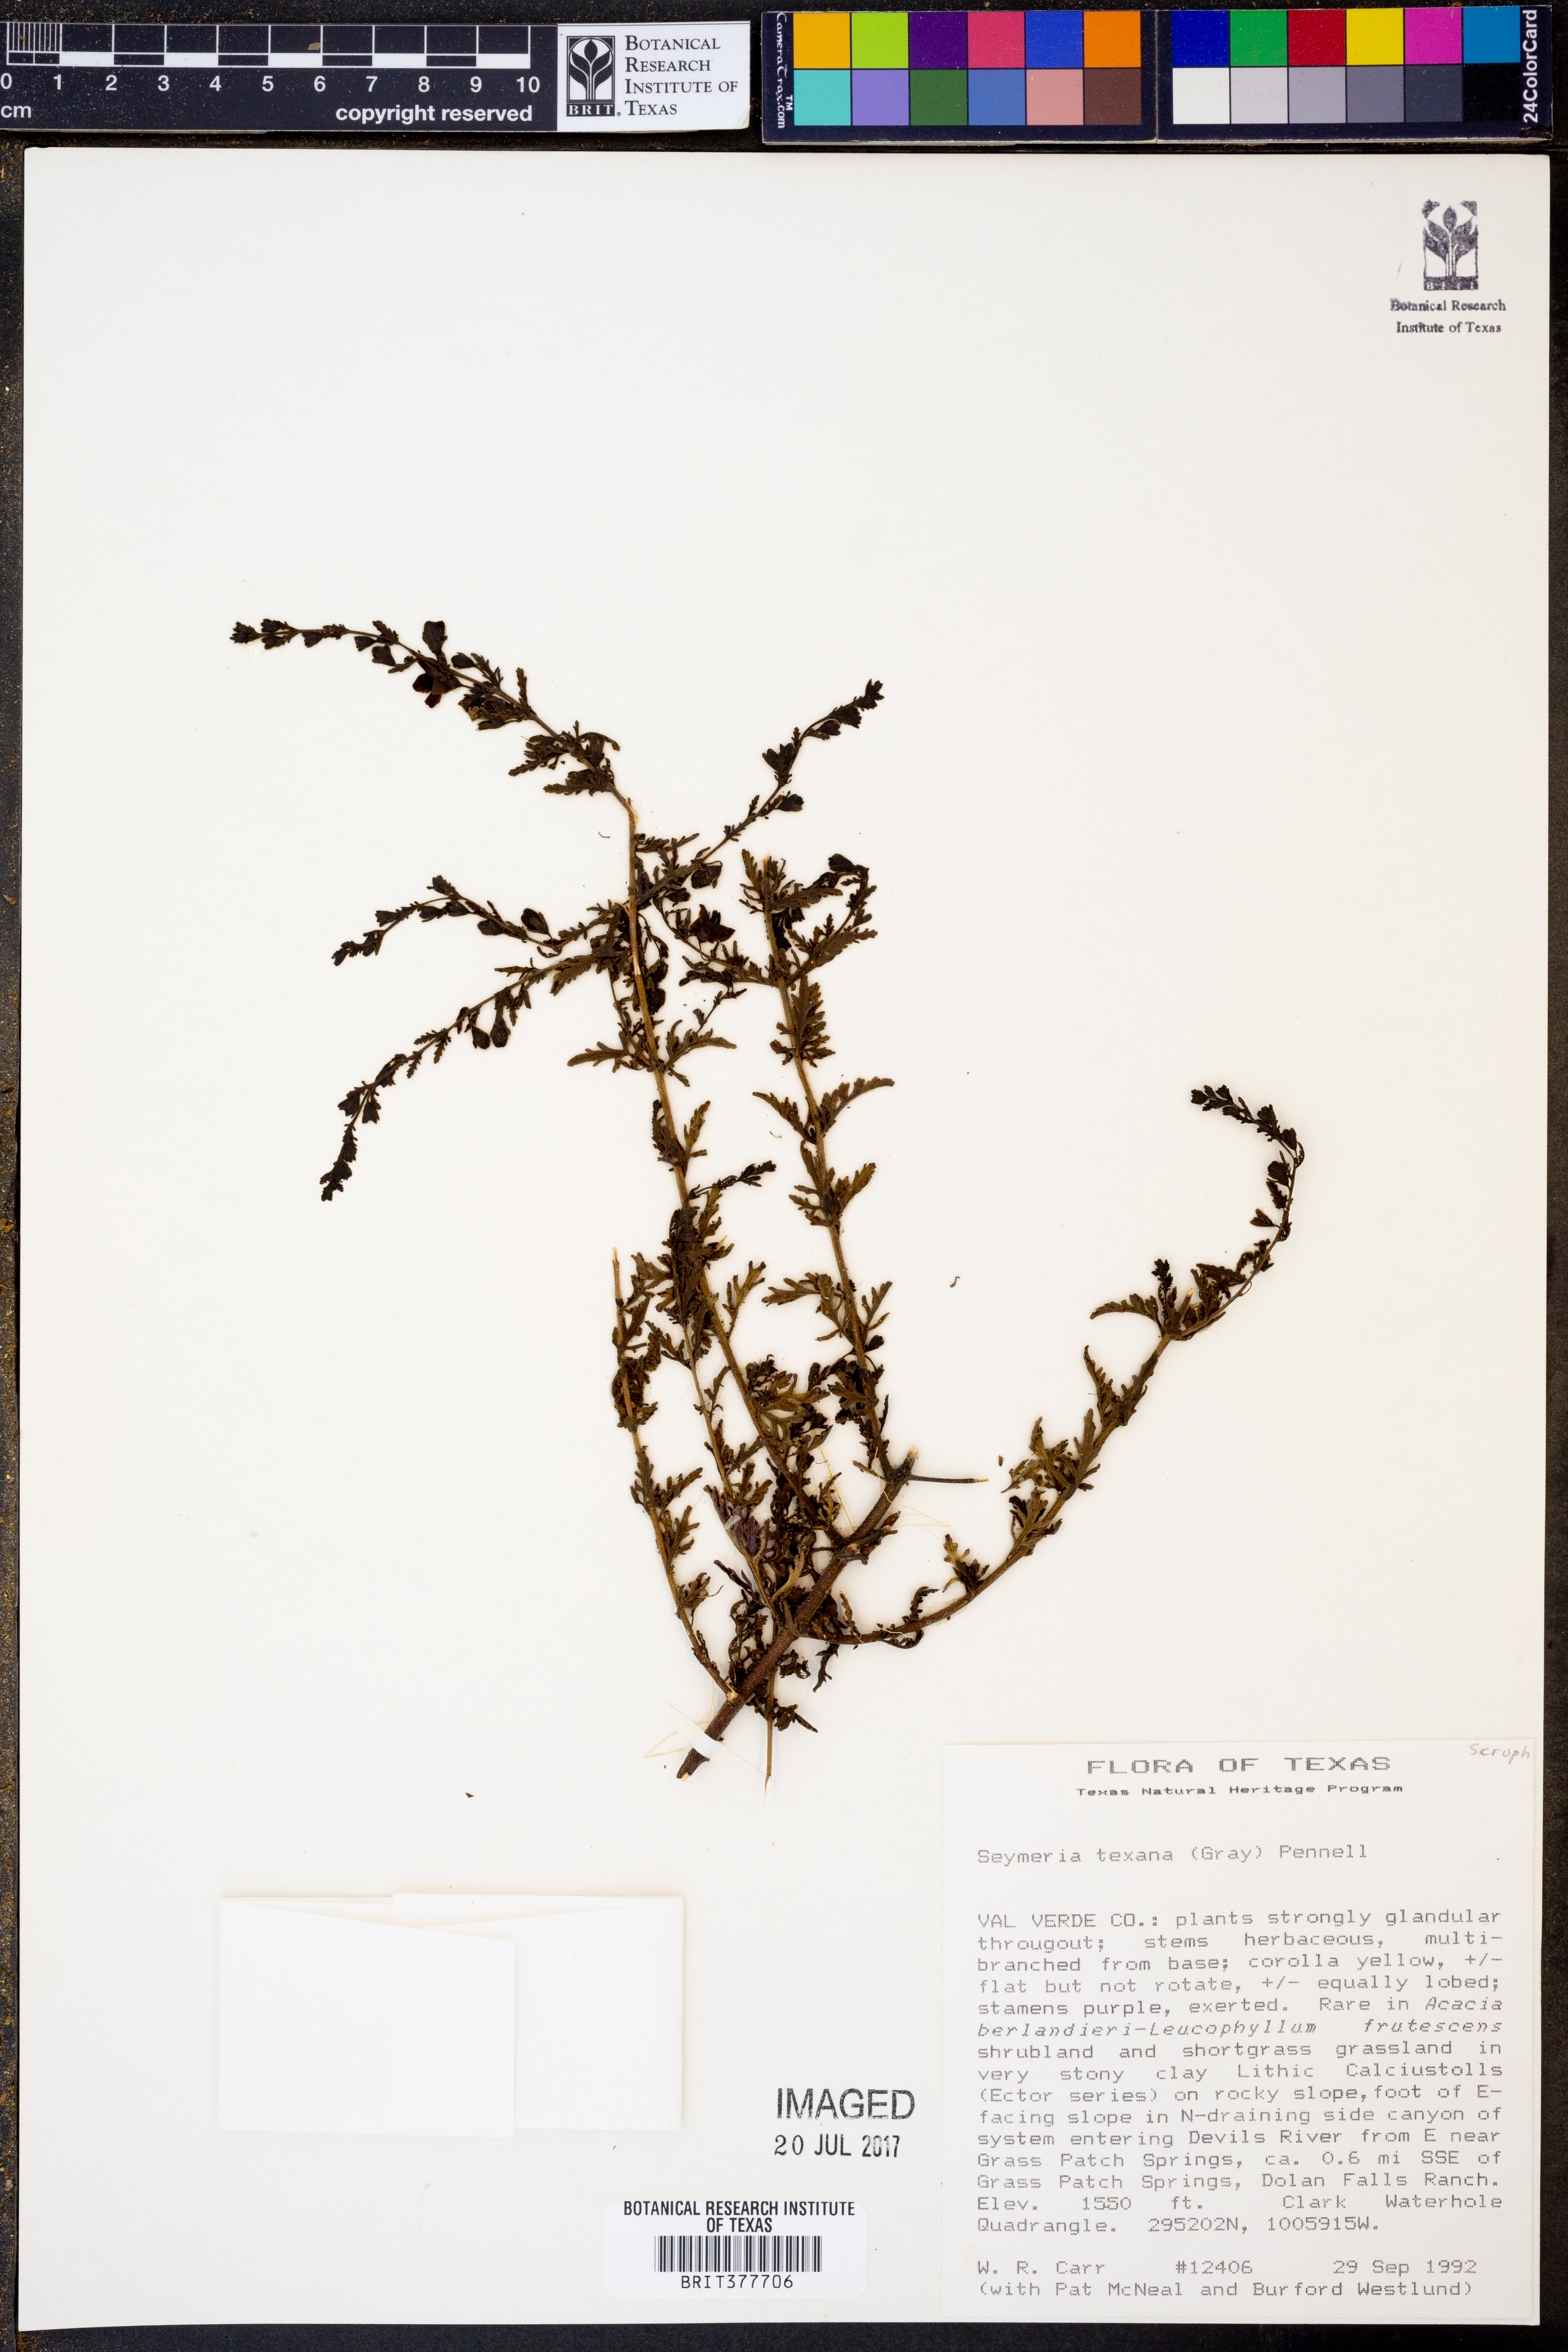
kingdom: Plantae
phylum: Tracheophyta
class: Magnoliopsida
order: Lamiales
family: Orobanchaceae
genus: Seymeria
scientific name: Seymeria bipinnatisecta
